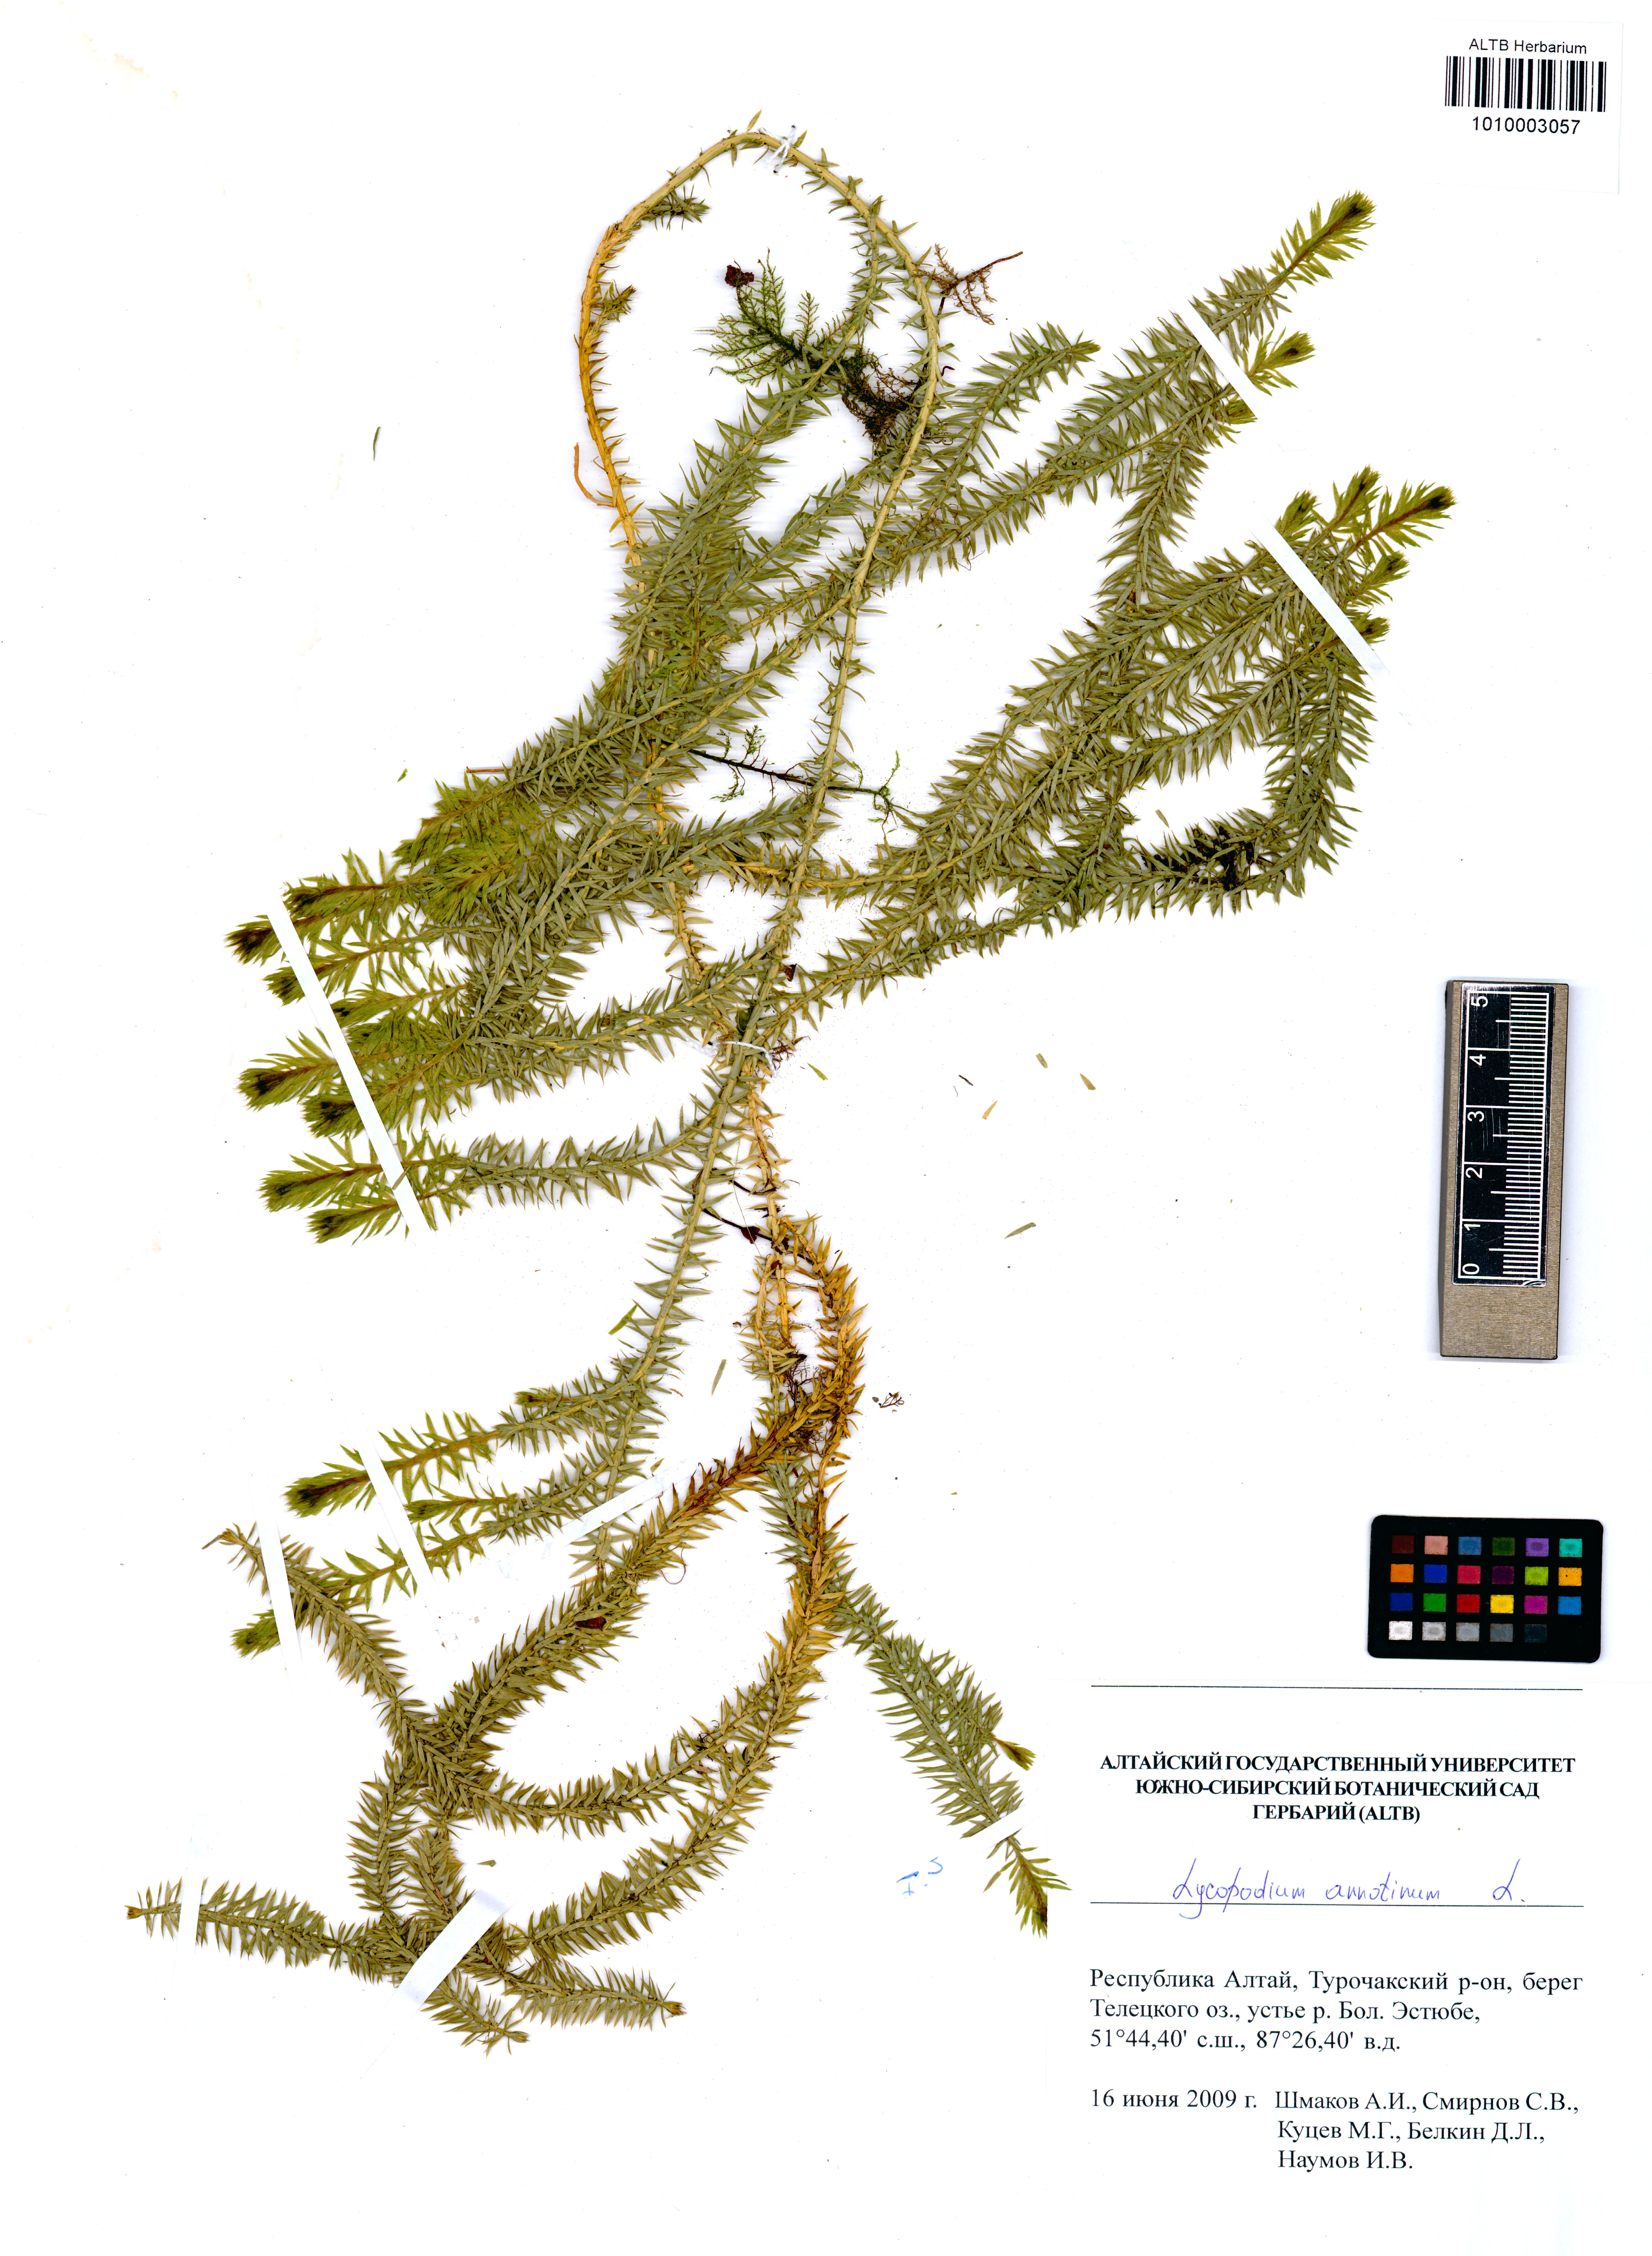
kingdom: Plantae
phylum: Tracheophyta
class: Lycopodiopsida
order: Lycopodiales
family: Lycopodiaceae
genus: Spinulum
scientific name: Spinulum annotinum
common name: Interrupted club-moss
